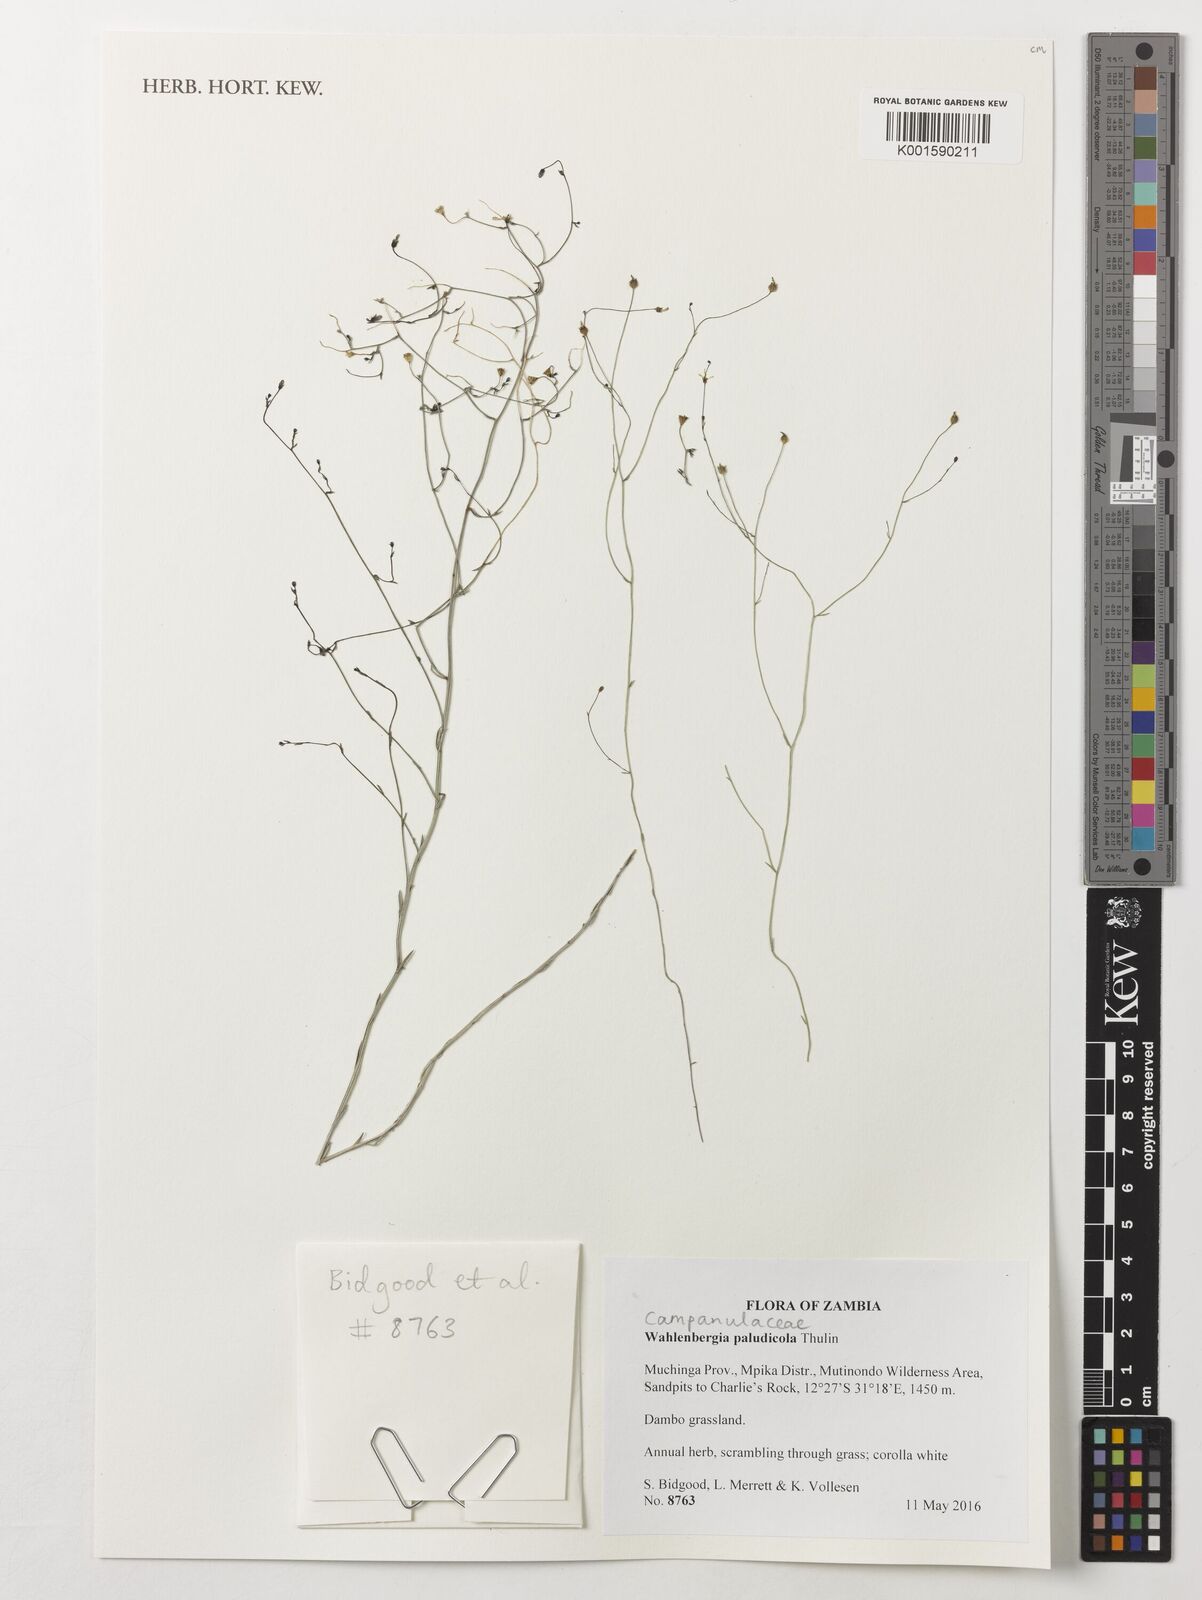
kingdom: Plantae
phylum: Tracheophyta
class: Magnoliopsida
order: Asterales
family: Campanulaceae
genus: Wahlenbergia
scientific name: Wahlenbergia paludicola
